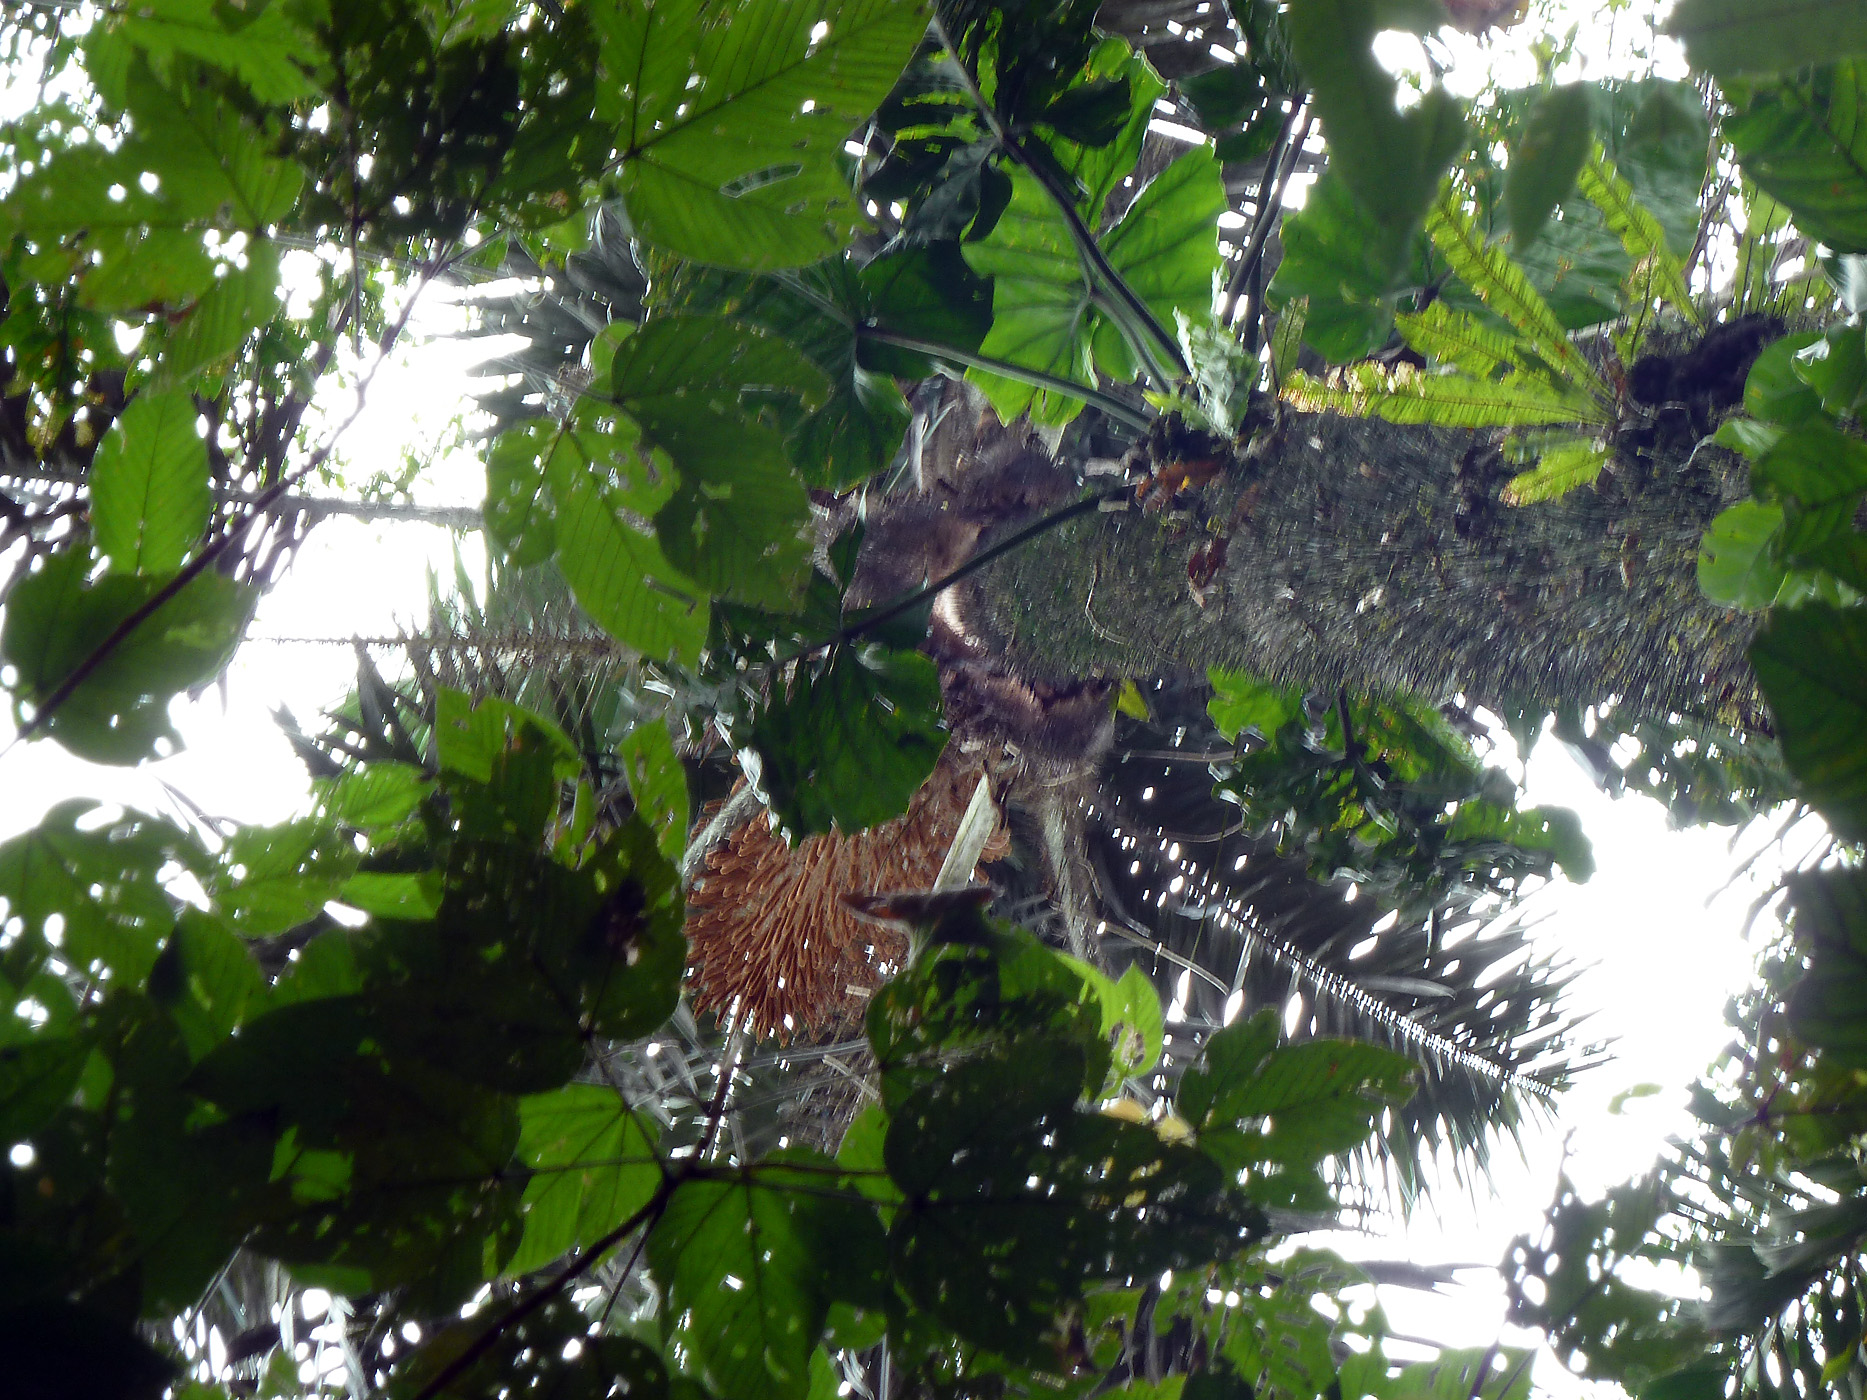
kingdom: Plantae
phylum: Tracheophyta
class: Liliopsida
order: Arecales
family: Arecaceae
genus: Astrocaryum
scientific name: Astrocaryum chambira
